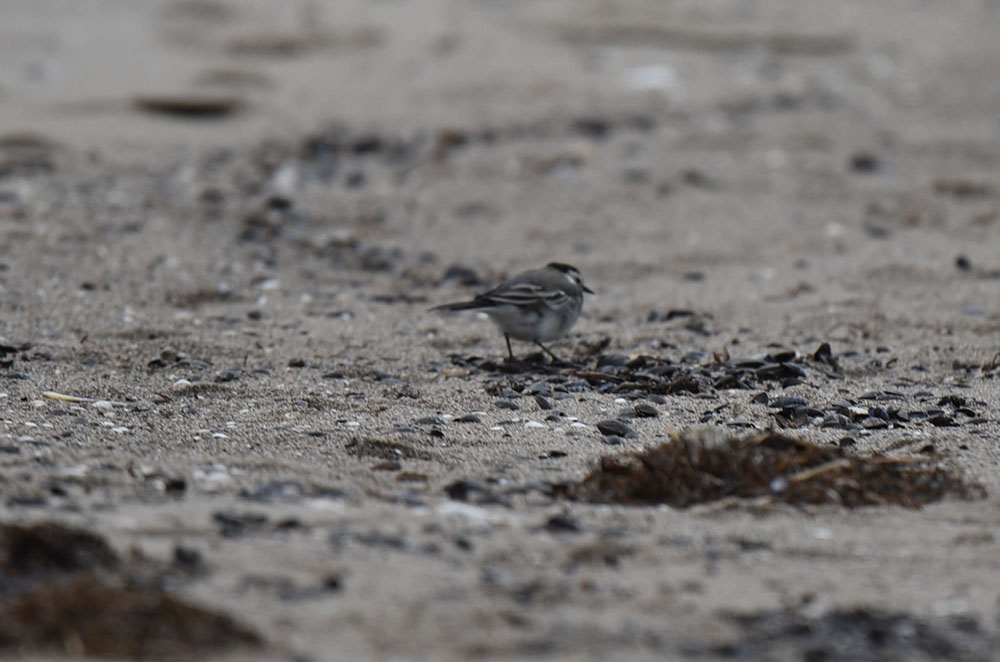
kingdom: Animalia
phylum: Chordata
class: Aves
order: Passeriformes
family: Motacillidae
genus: Motacilla
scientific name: Motacilla alba
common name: White wagtail
